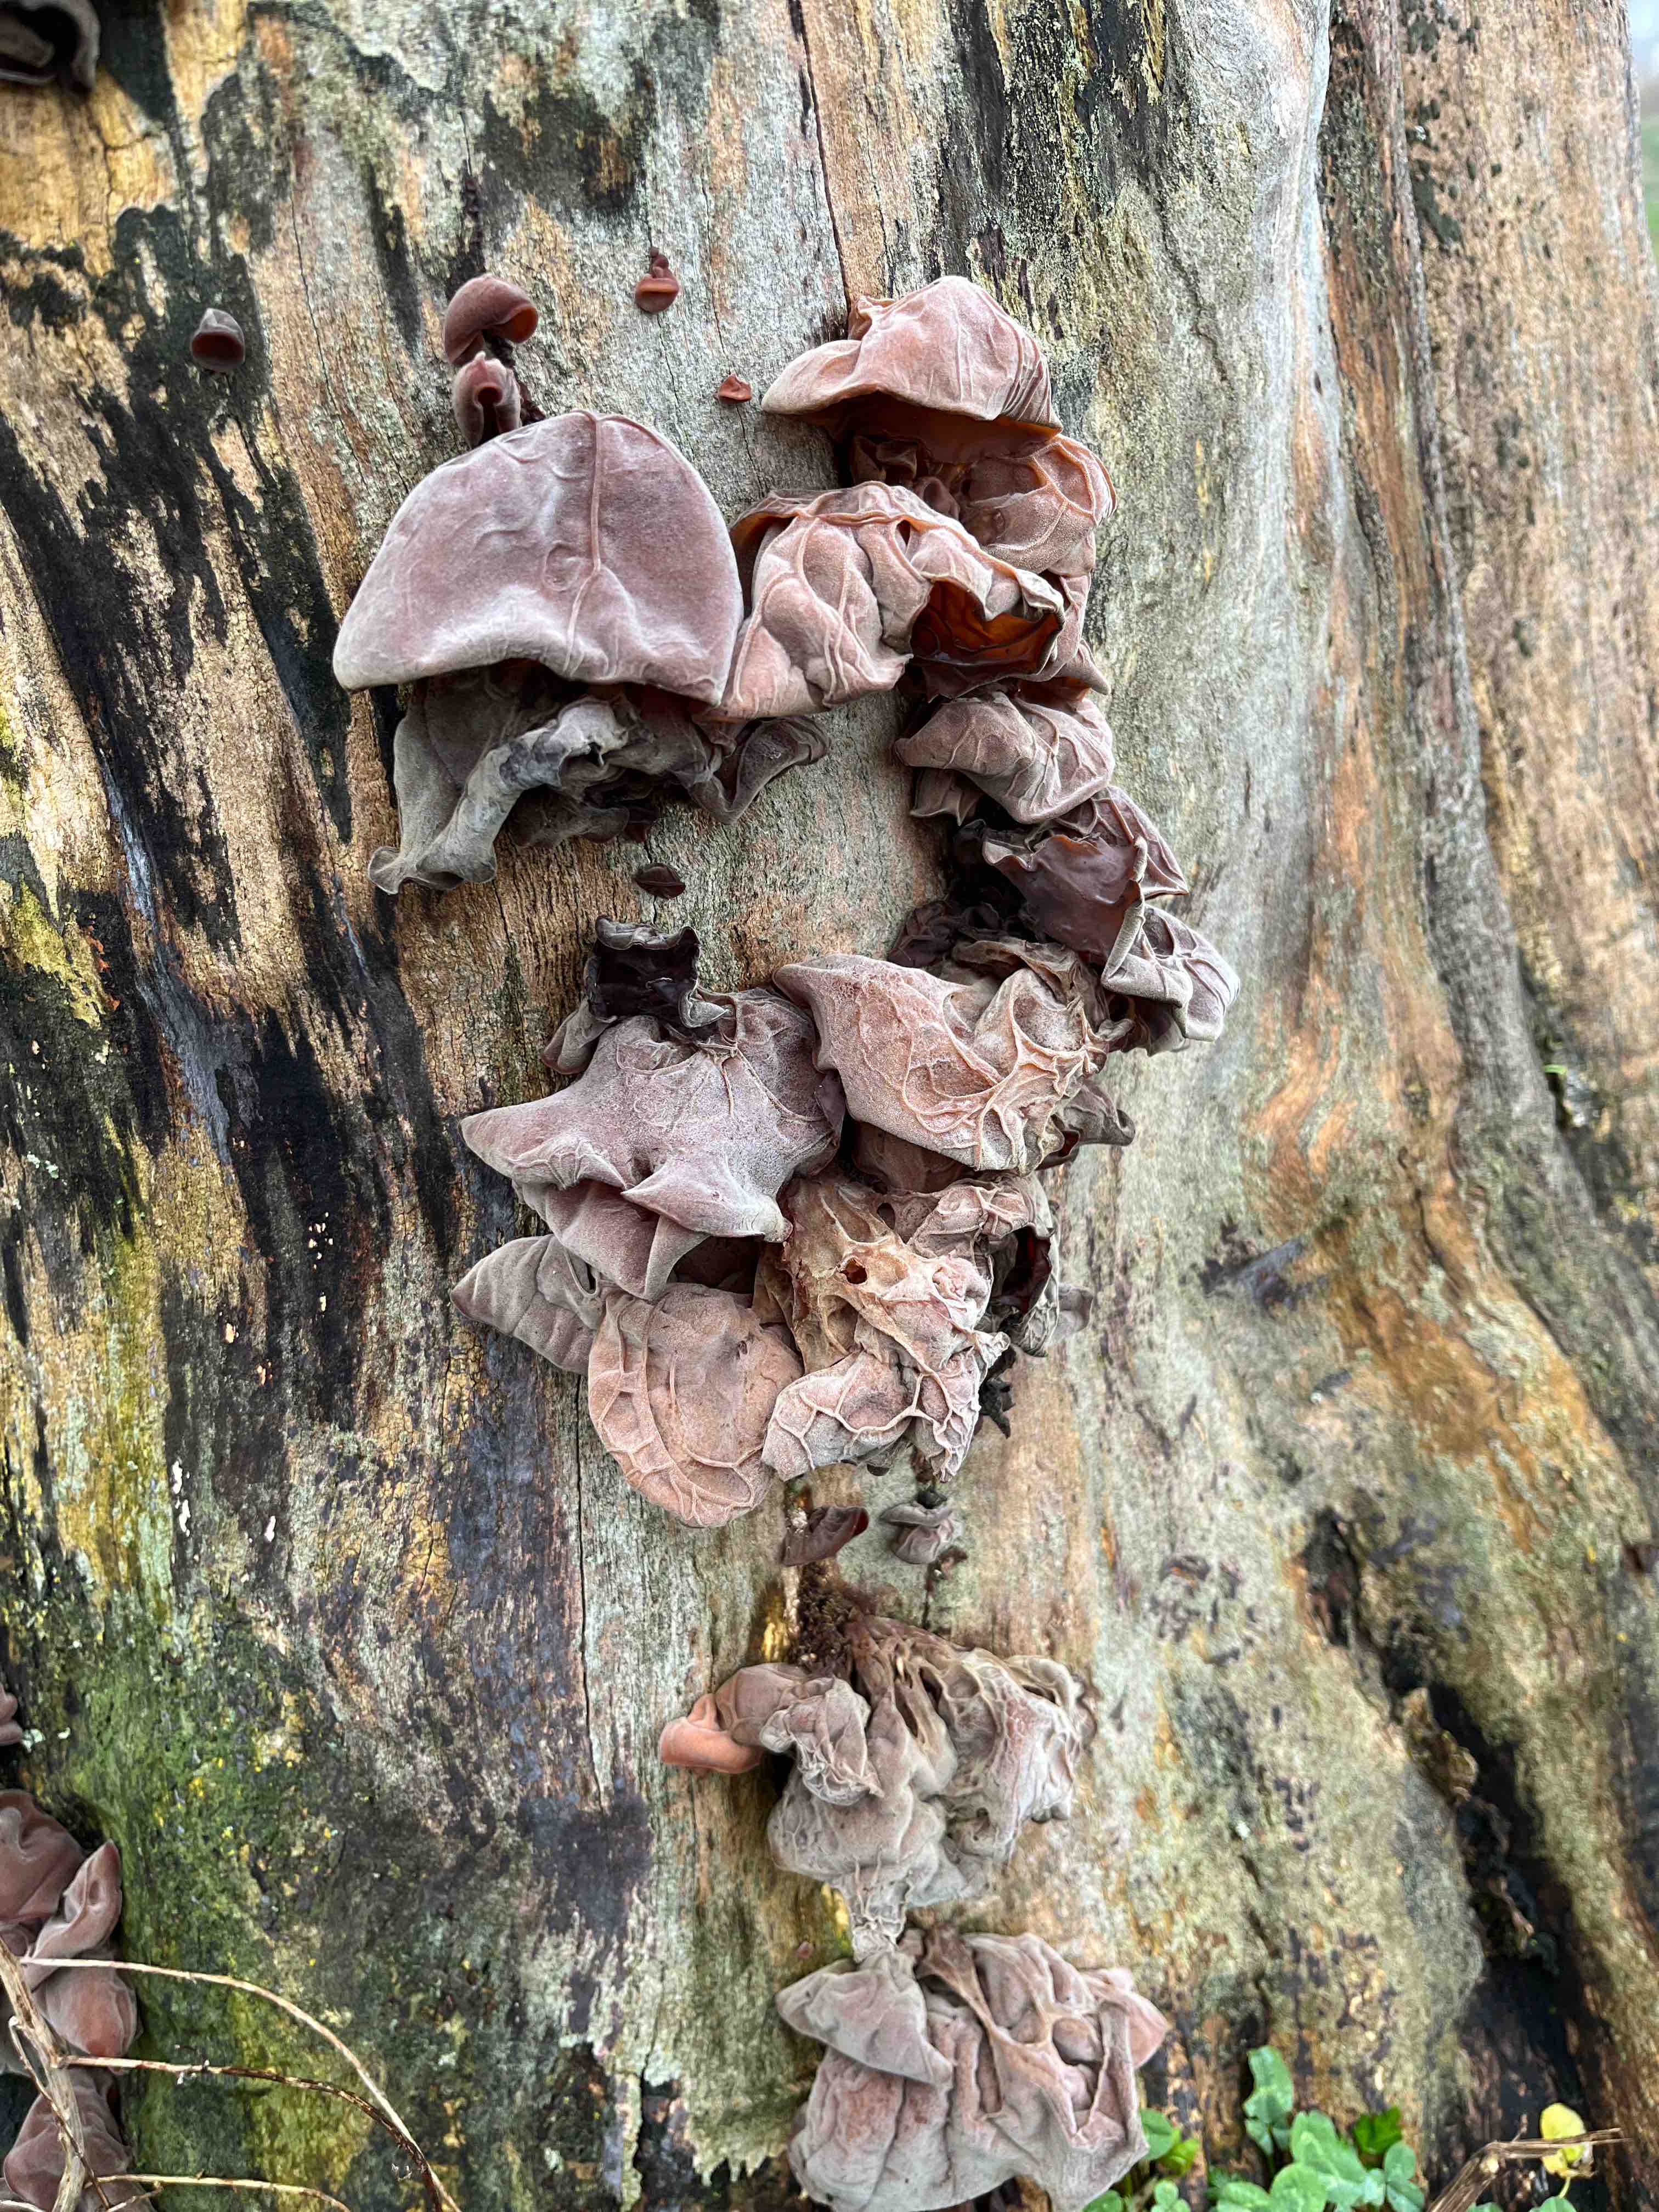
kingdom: Fungi
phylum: Basidiomycota
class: Agaricomycetes
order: Auriculariales
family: Auriculariaceae
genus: Auricularia
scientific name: Auricularia auricula-judae
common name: almindelig judasøre
